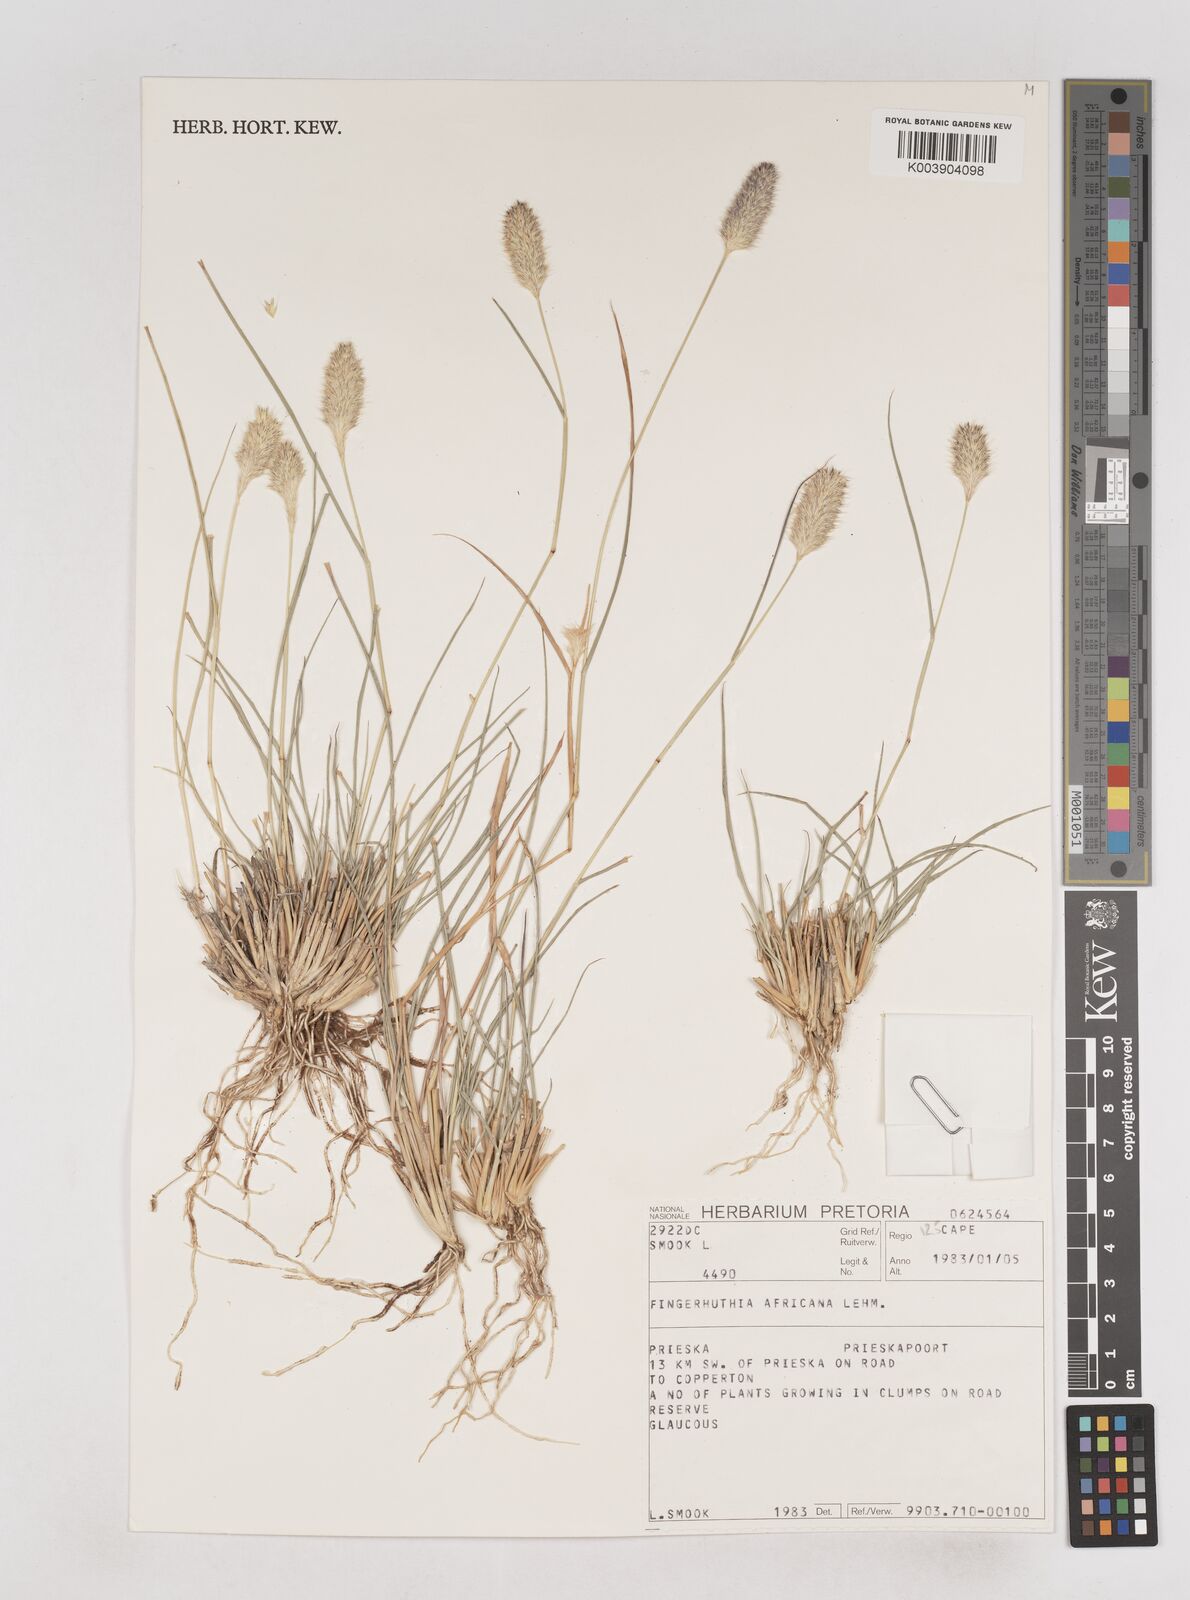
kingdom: Plantae
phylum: Tracheophyta
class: Liliopsida
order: Poales
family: Poaceae
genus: Fingerhuthia
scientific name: Fingerhuthia africana
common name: Zulu fescue
